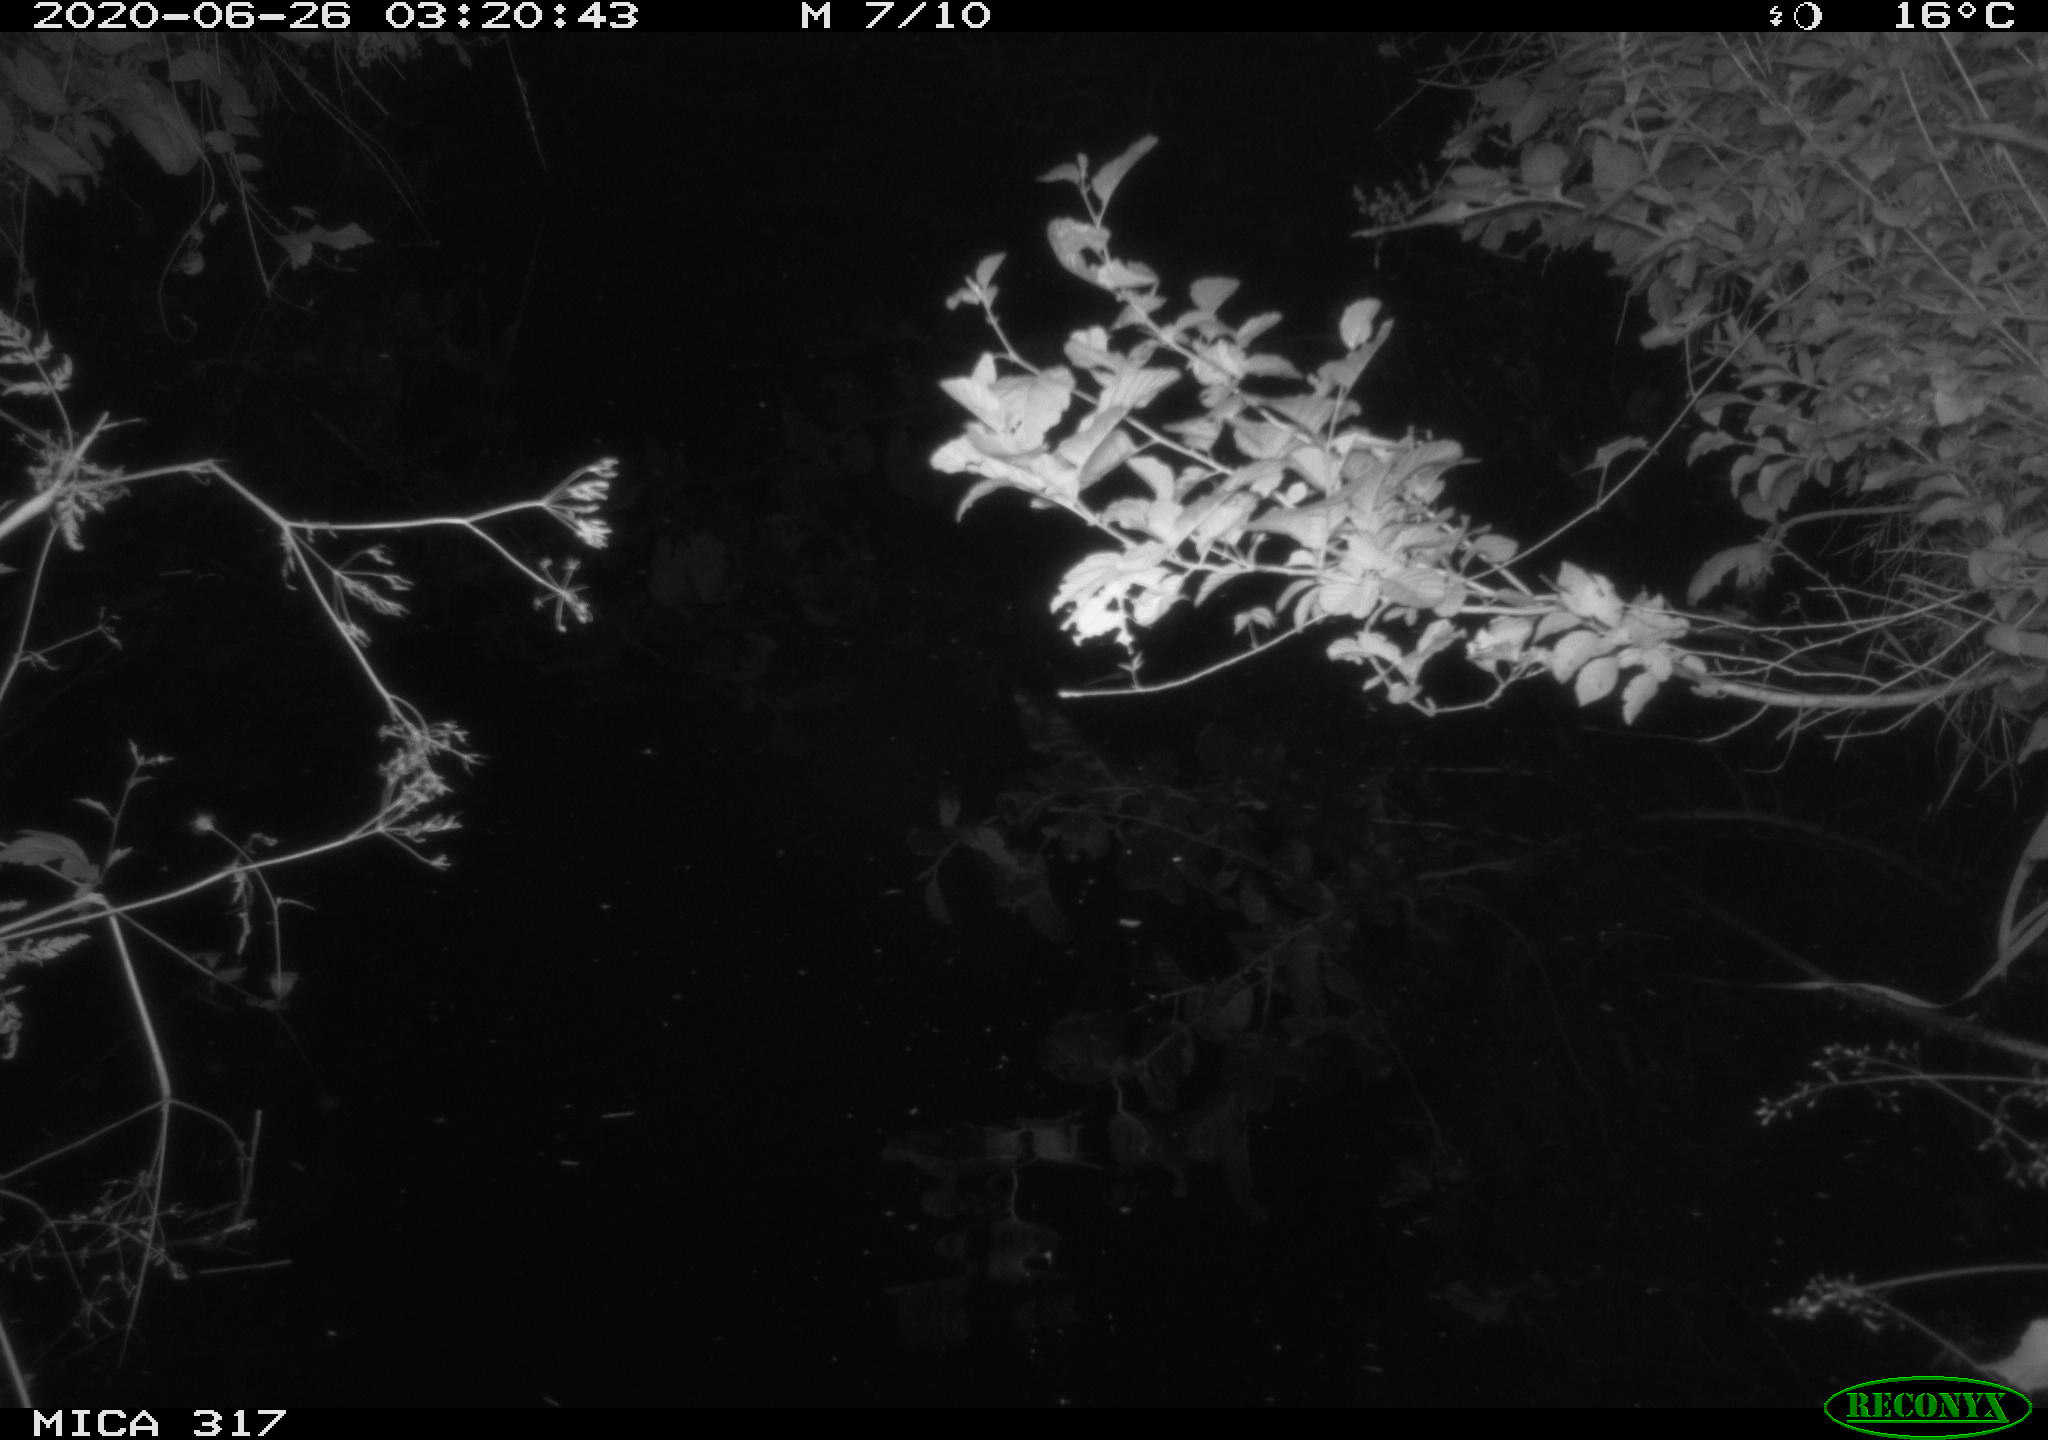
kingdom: Animalia
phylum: Chordata
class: Aves
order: Anseriformes
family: Anatidae
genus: Anas
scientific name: Anas platyrhynchos
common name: Mallard
